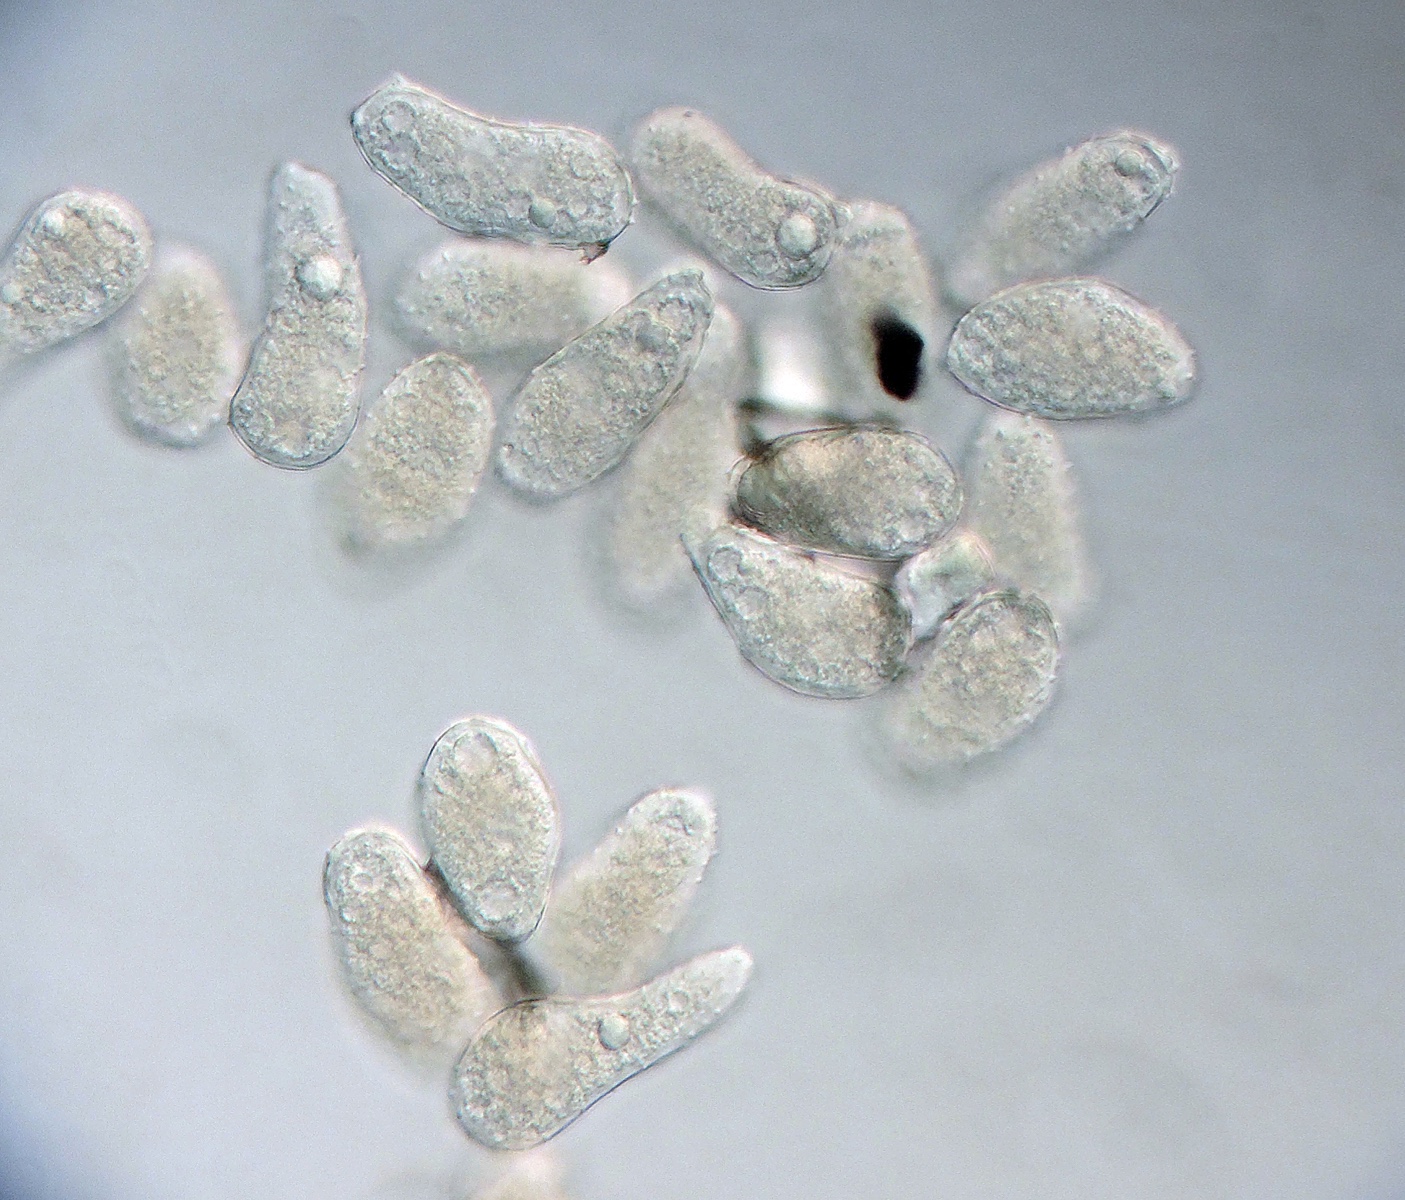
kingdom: Fungi
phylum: Basidiomycota
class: Pucciniomycetes
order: Pucciniales
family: Milesinaceae
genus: Milesina
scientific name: Milesina dieteliana
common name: engelsød-bregnerust
